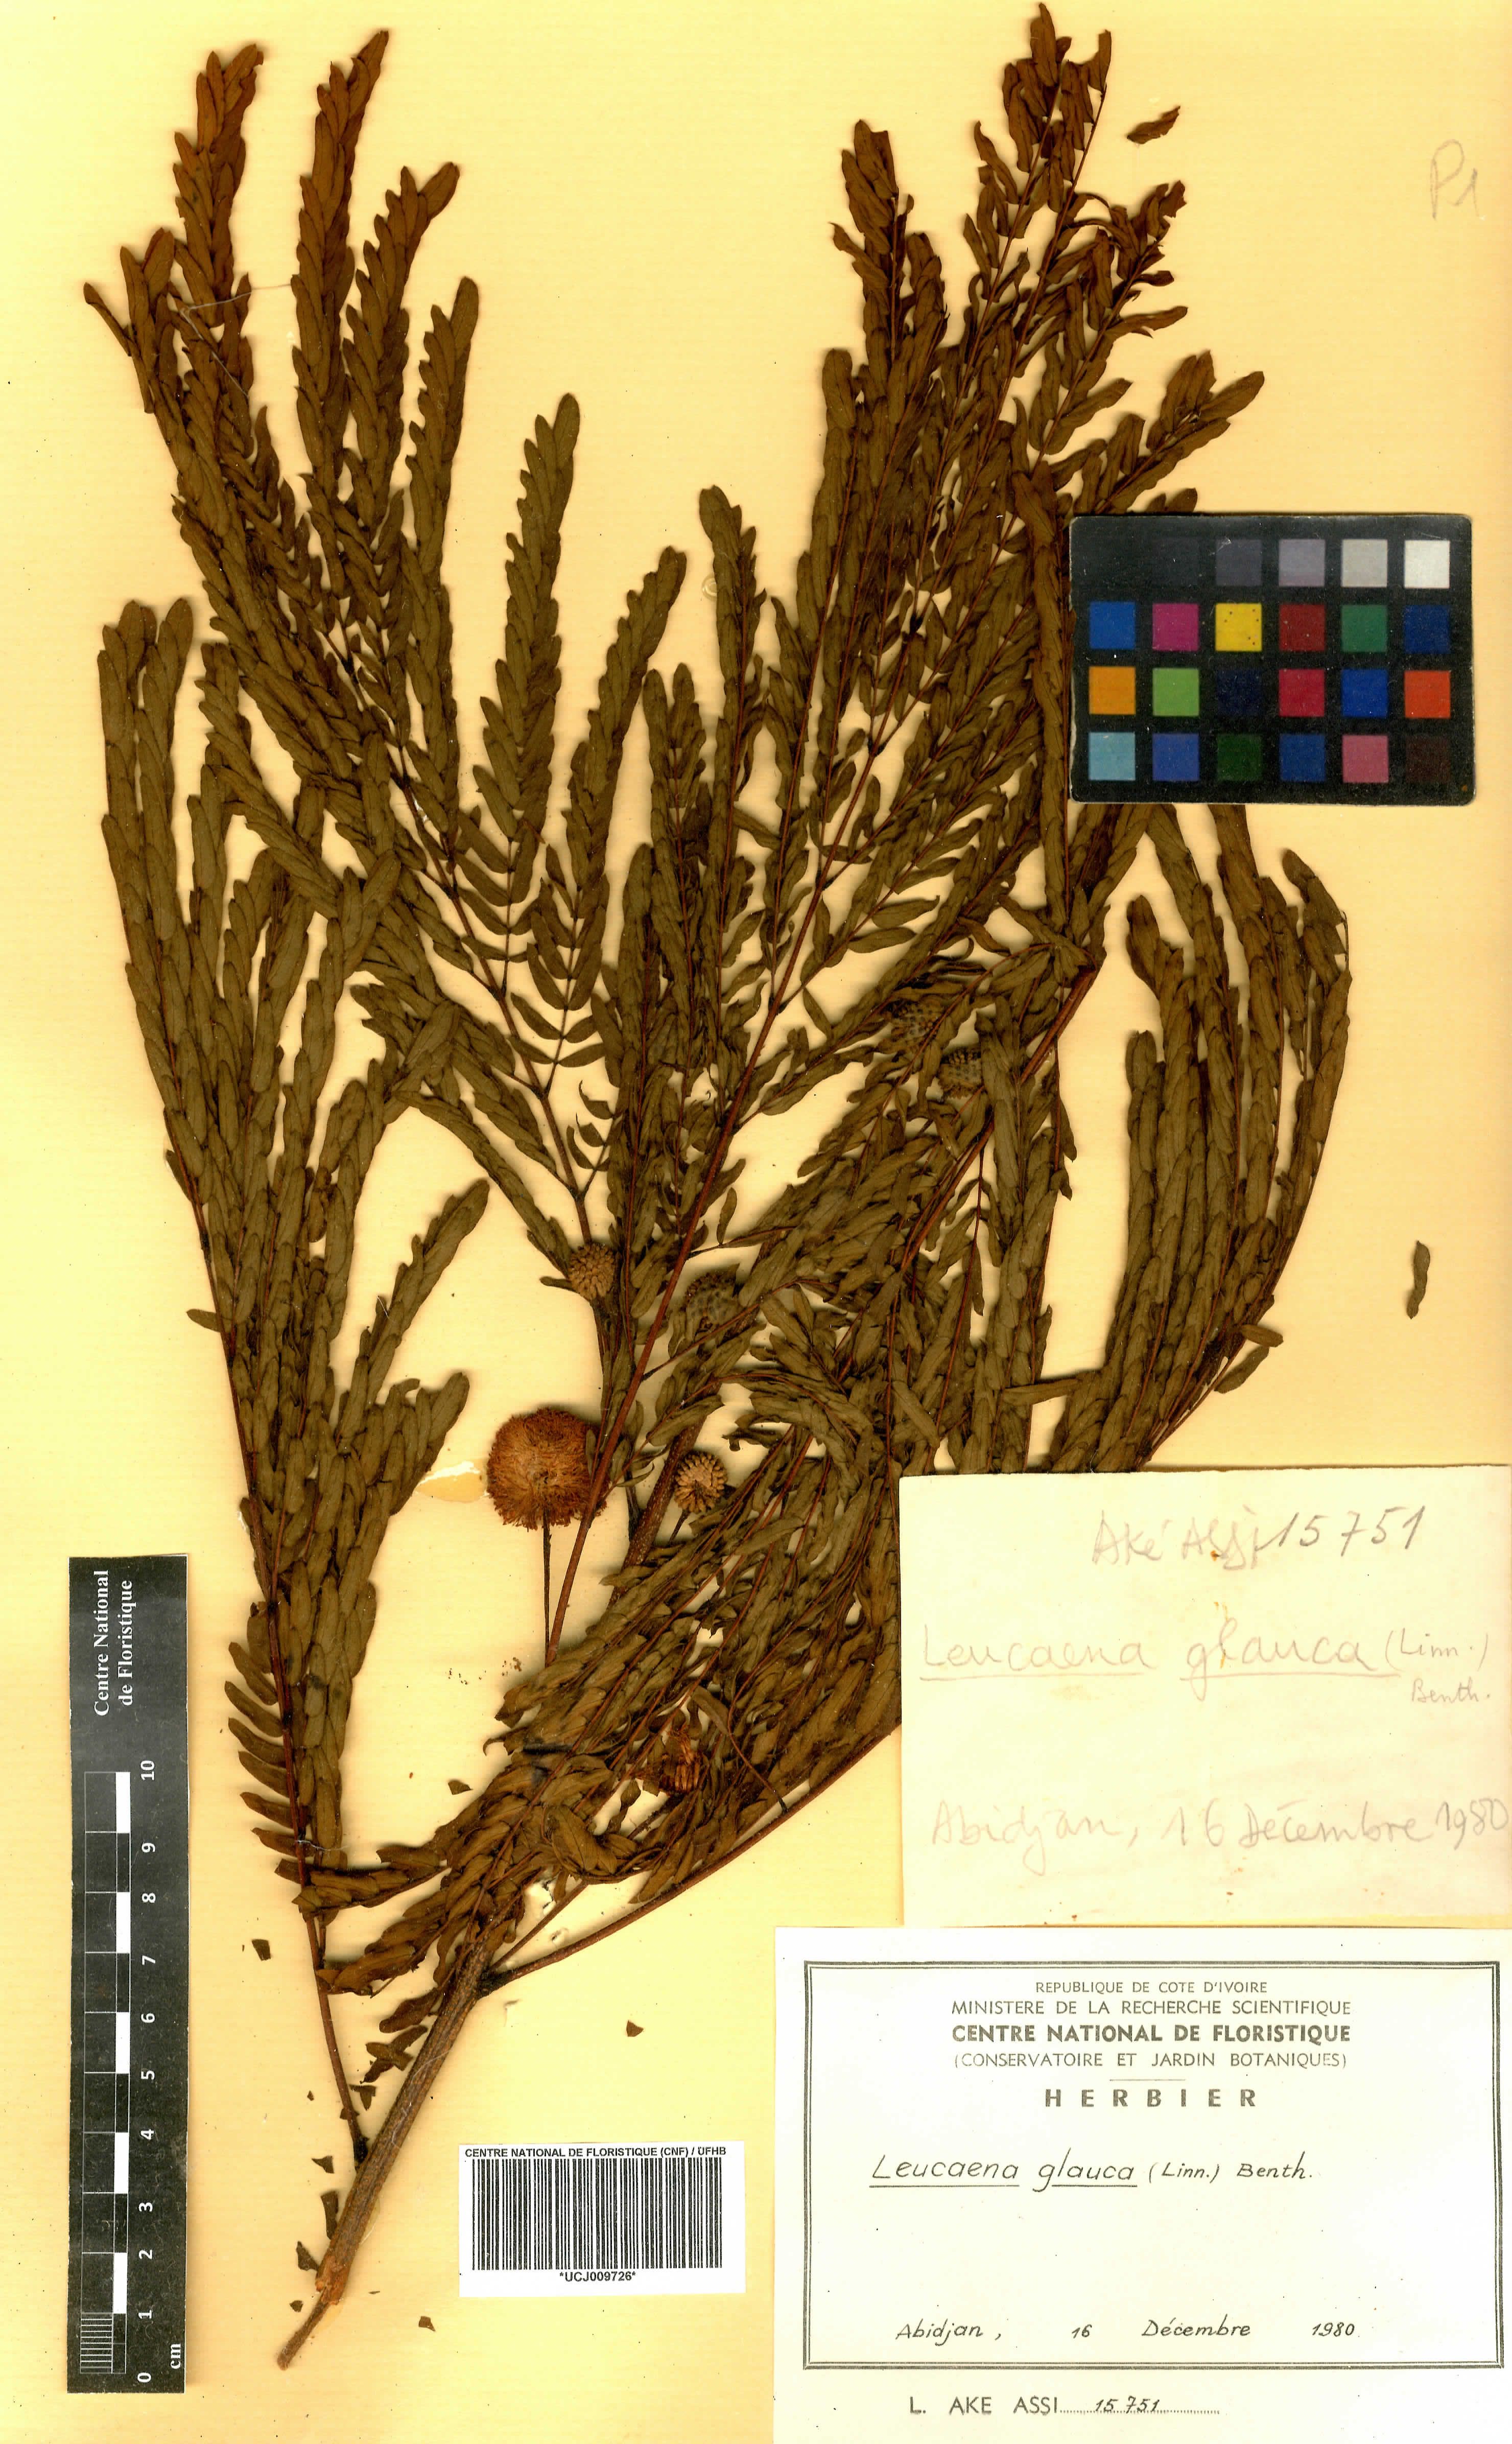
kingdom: Plantae
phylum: Tracheophyta
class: Magnoliopsida
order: Fabales
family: Fabaceae
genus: Acaciella
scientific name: Acaciella glauca
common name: Redwood
